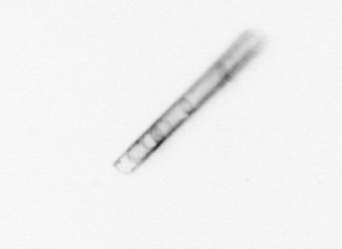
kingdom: Chromista
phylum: Ochrophyta
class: Bacillariophyceae
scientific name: Bacillariophyceae
